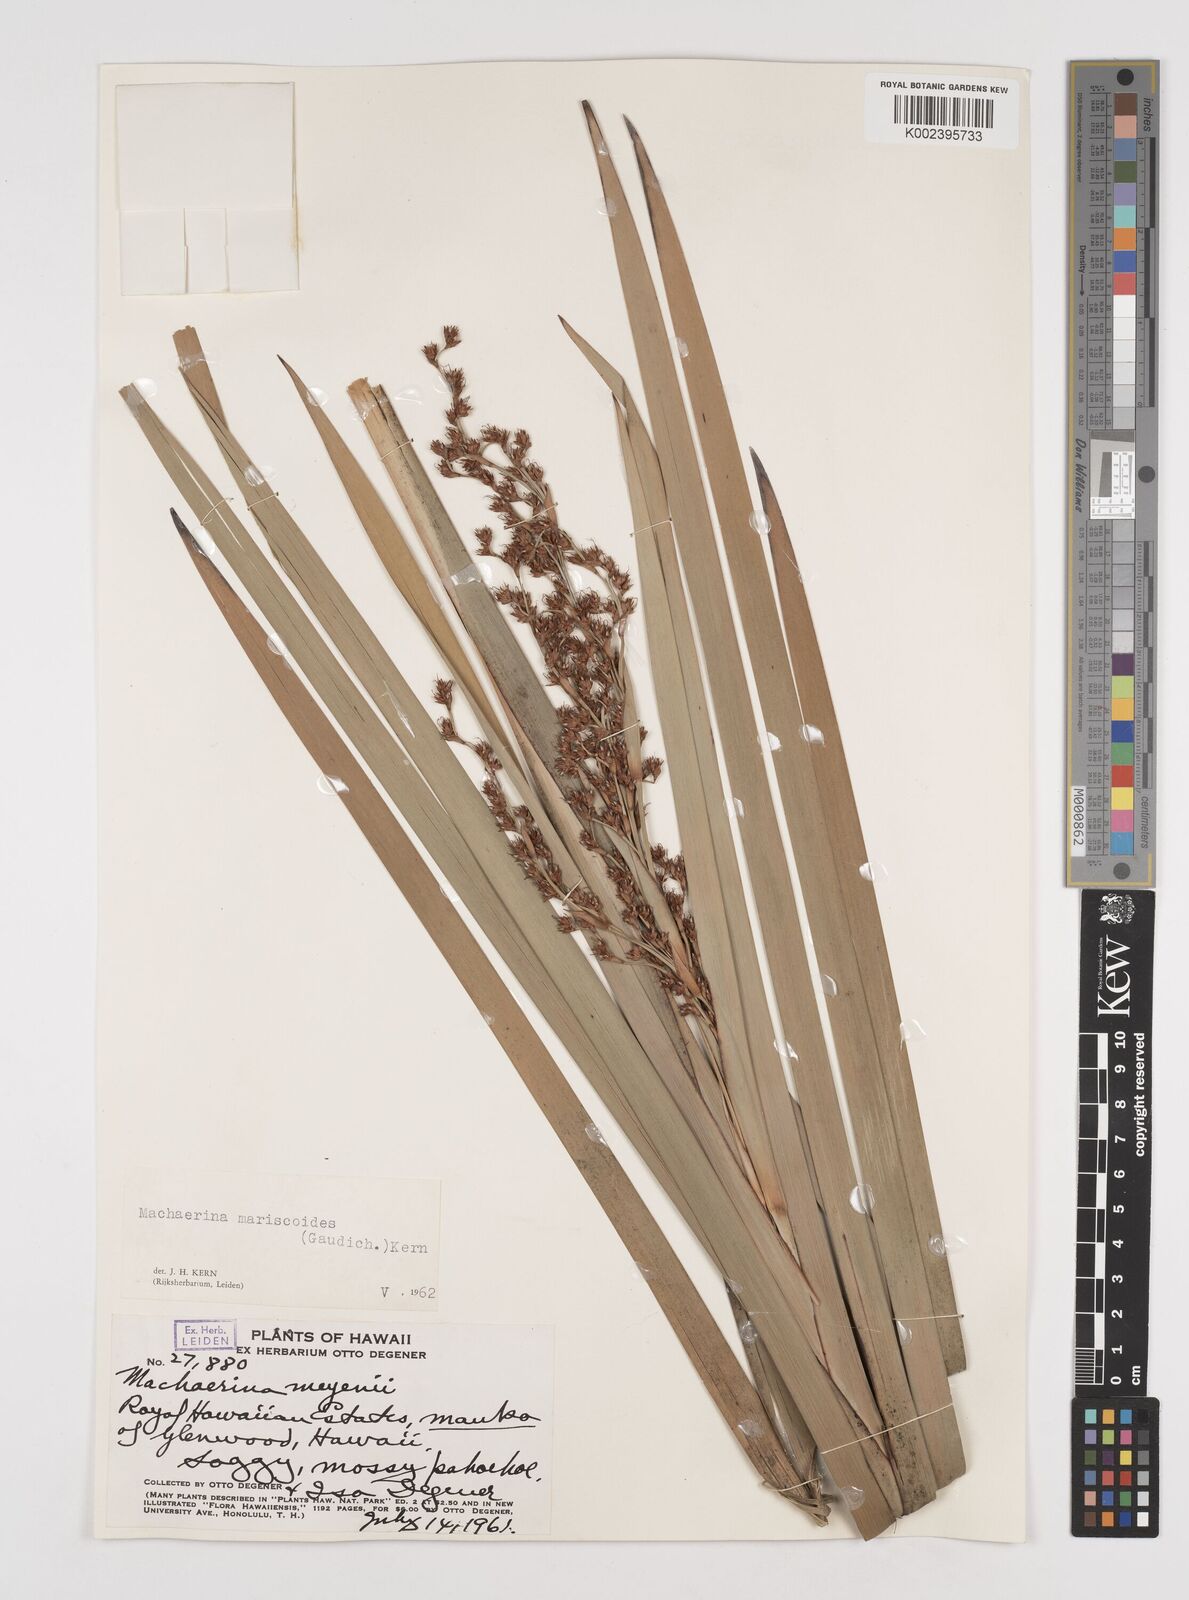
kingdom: Plantae
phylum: Tracheophyta
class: Liliopsida
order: Poales
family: Cyperaceae
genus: Machaerina
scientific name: Machaerina mariscoides
